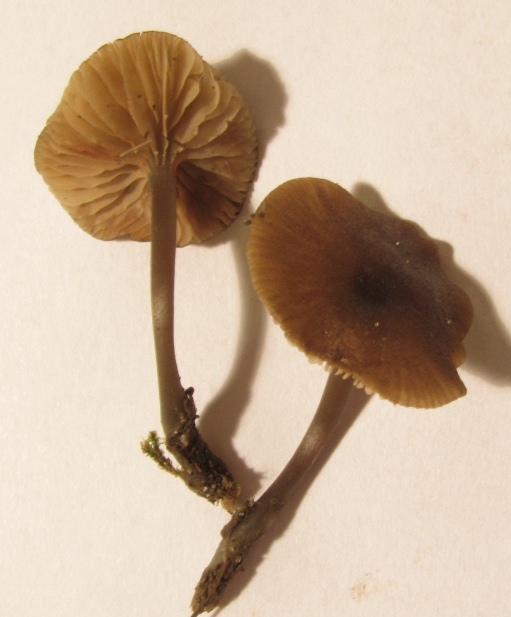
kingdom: Fungi
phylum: Basidiomycota
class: Agaricomycetes
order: Agaricales
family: Entolomataceae
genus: Entoloma
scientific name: Entoloma
